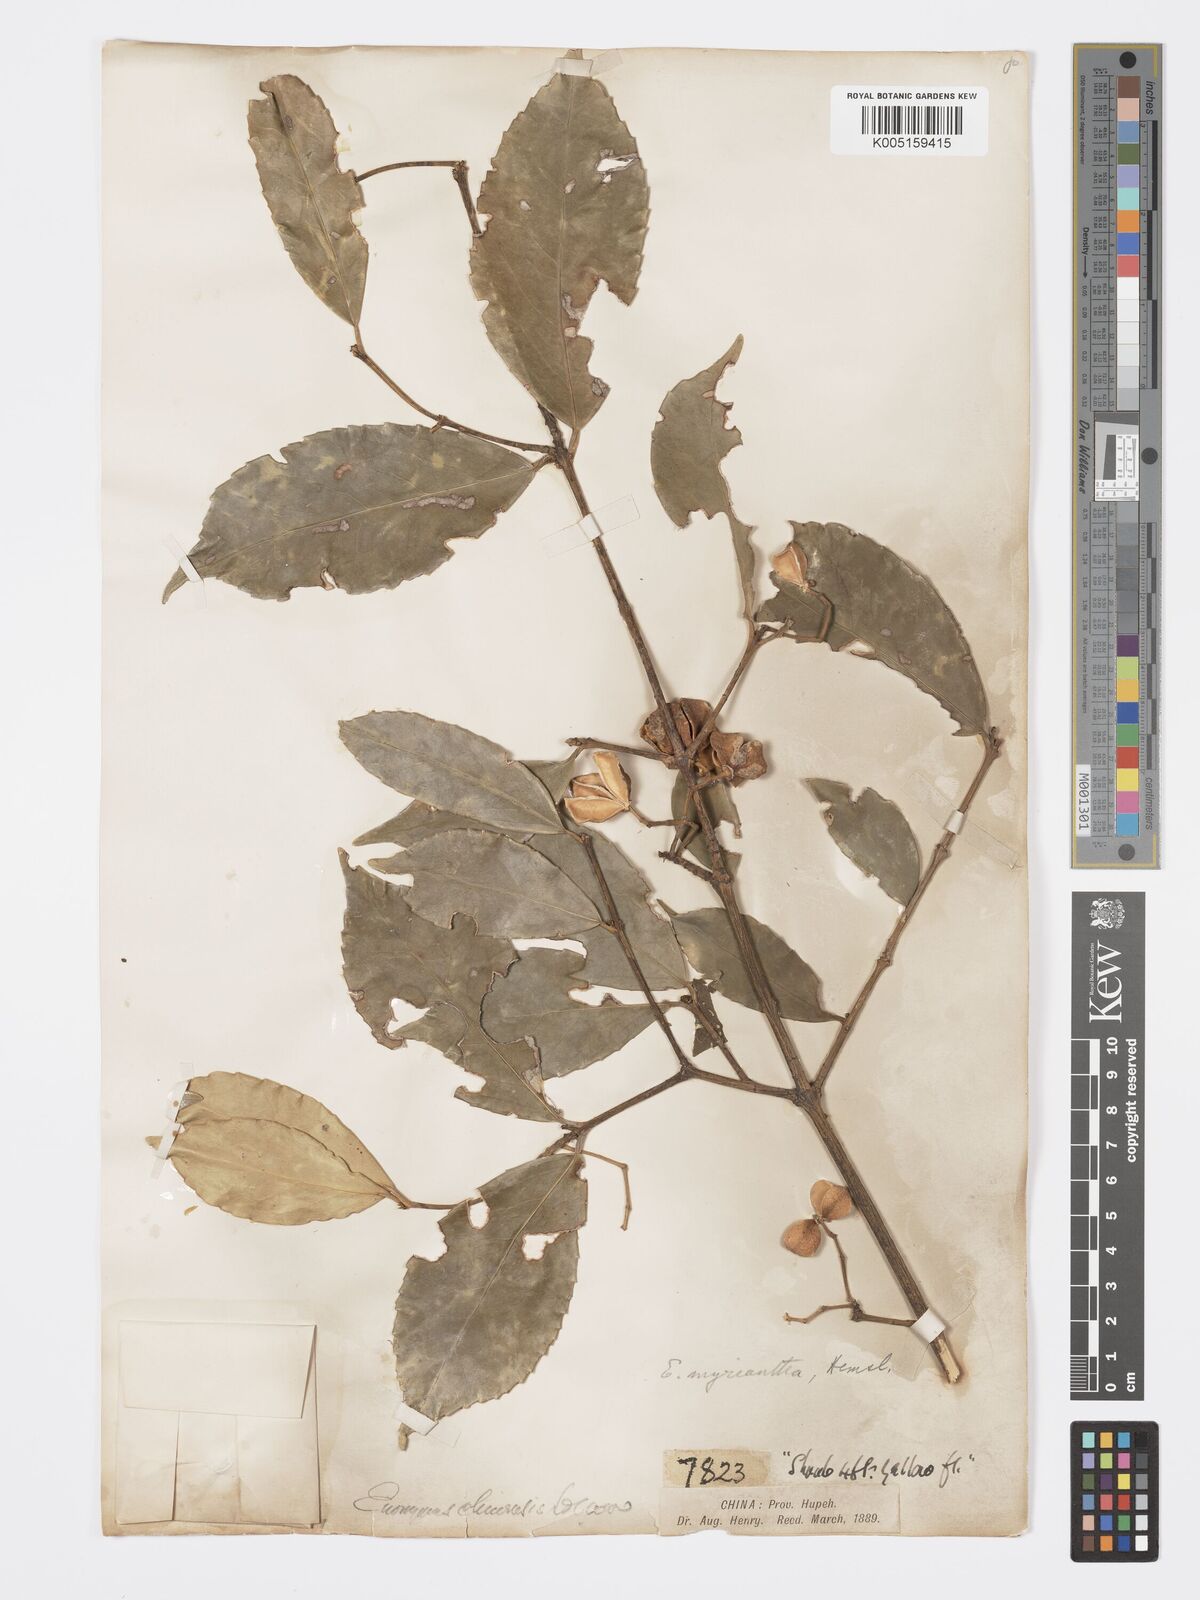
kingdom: Plantae
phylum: Tracheophyta
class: Magnoliopsida
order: Celastrales
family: Celastraceae
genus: Euonymus
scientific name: Euonymus myrianthus
